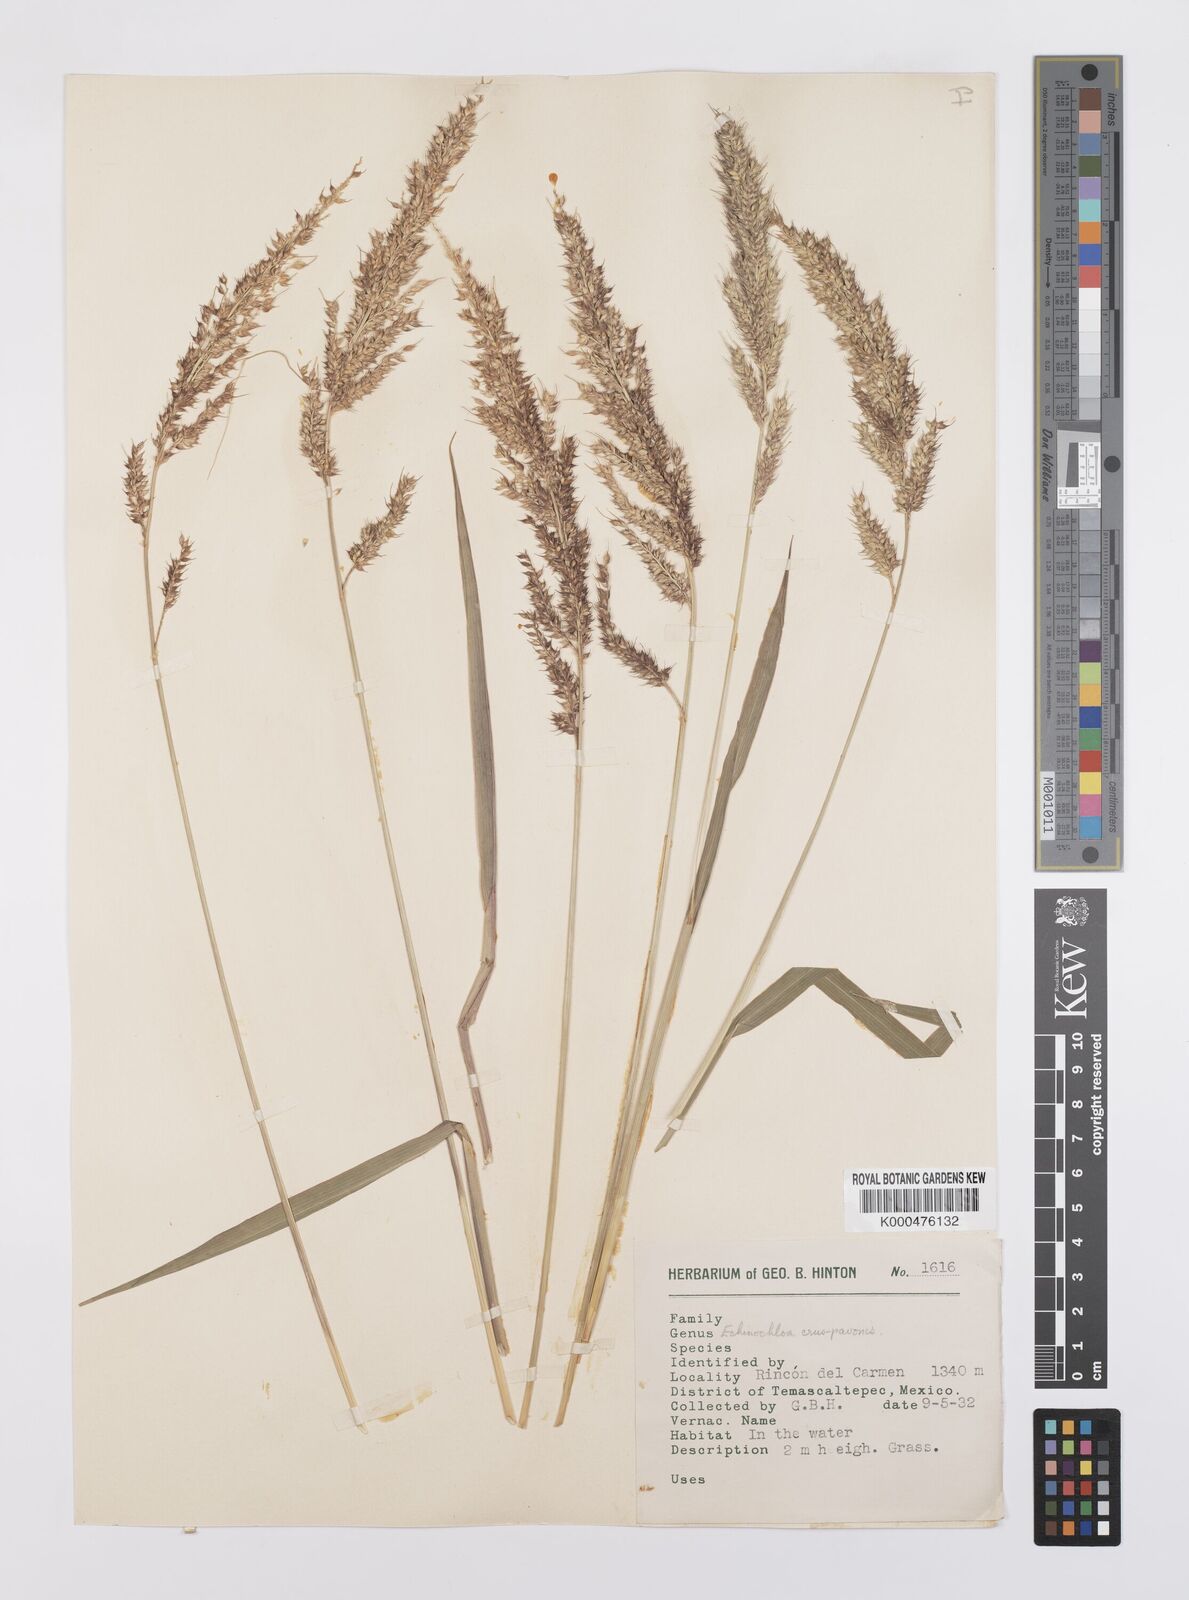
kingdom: Plantae
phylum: Tracheophyta
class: Liliopsida
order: Poales
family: Poaceae
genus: Echinochloa
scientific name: Echinochloa crus-pavonis
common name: Gulf cockspur grass
